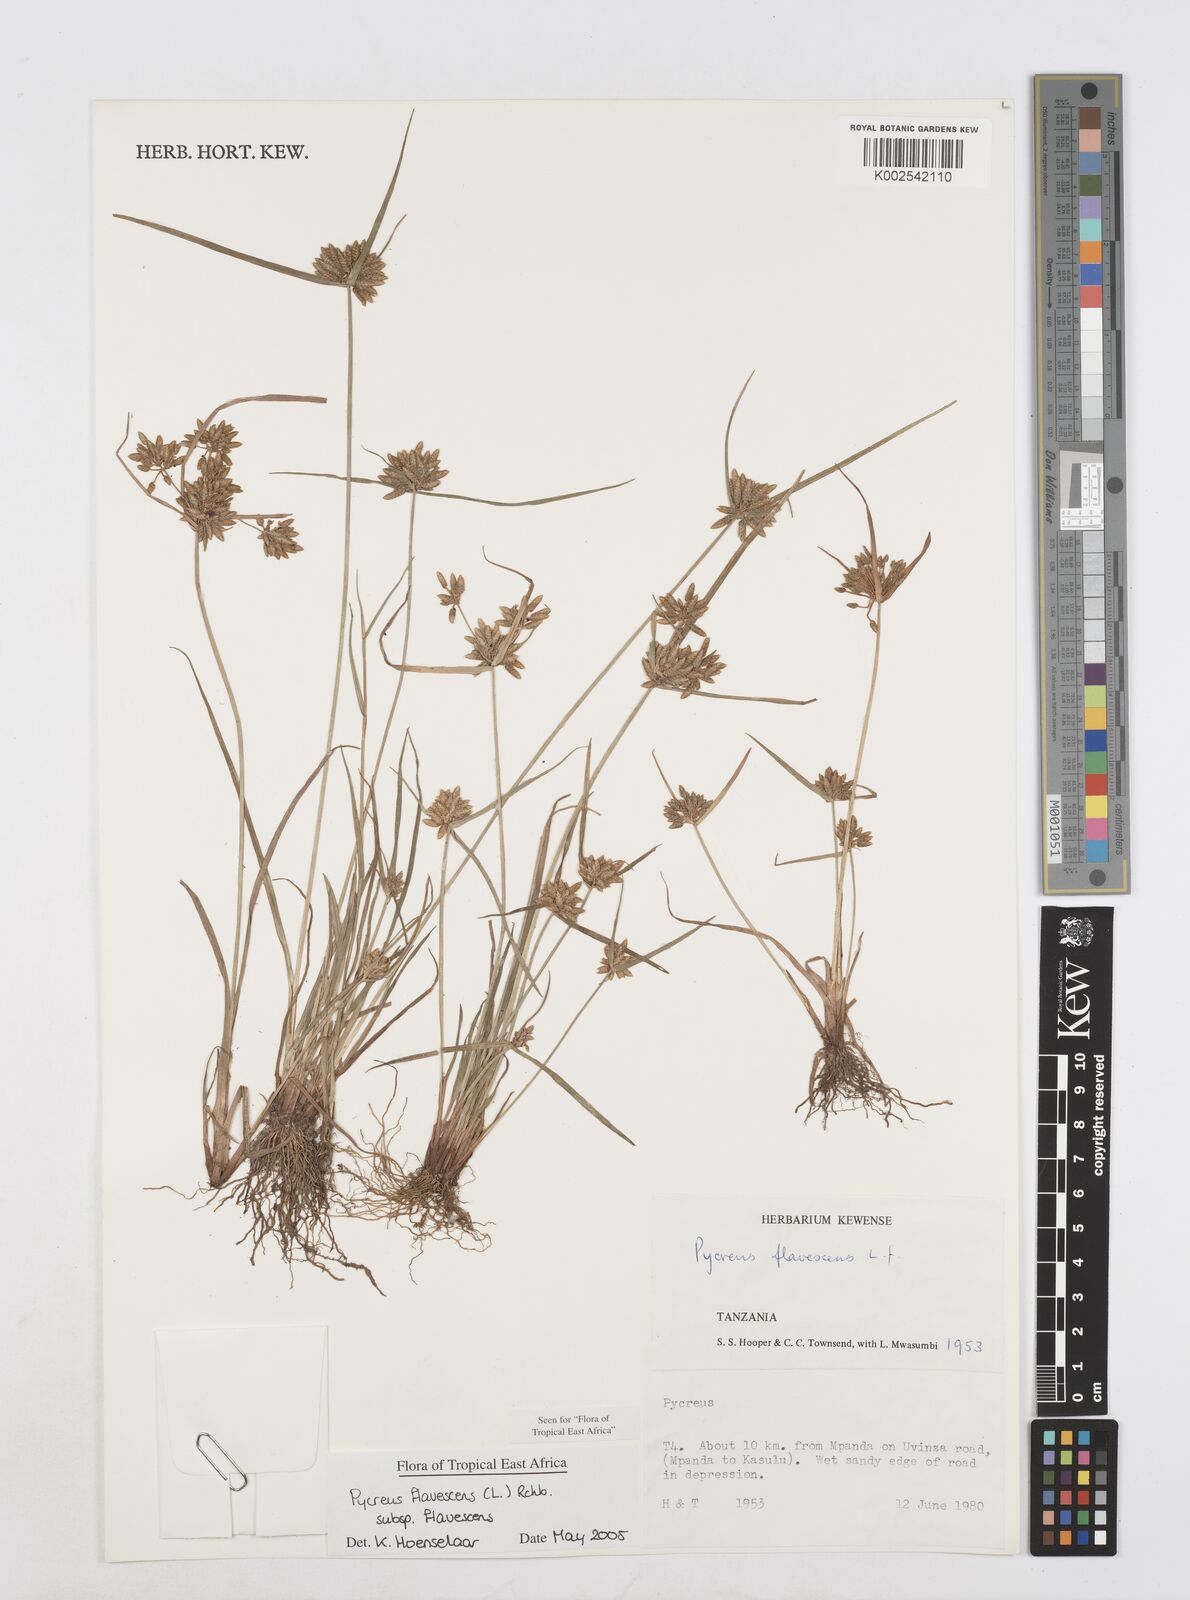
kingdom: Plantae
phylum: Tracheophyta
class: Liliopsida
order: Poales
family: Cyperaceae
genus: Cyperus
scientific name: Cyperus flavescens
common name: Yellow galingale
